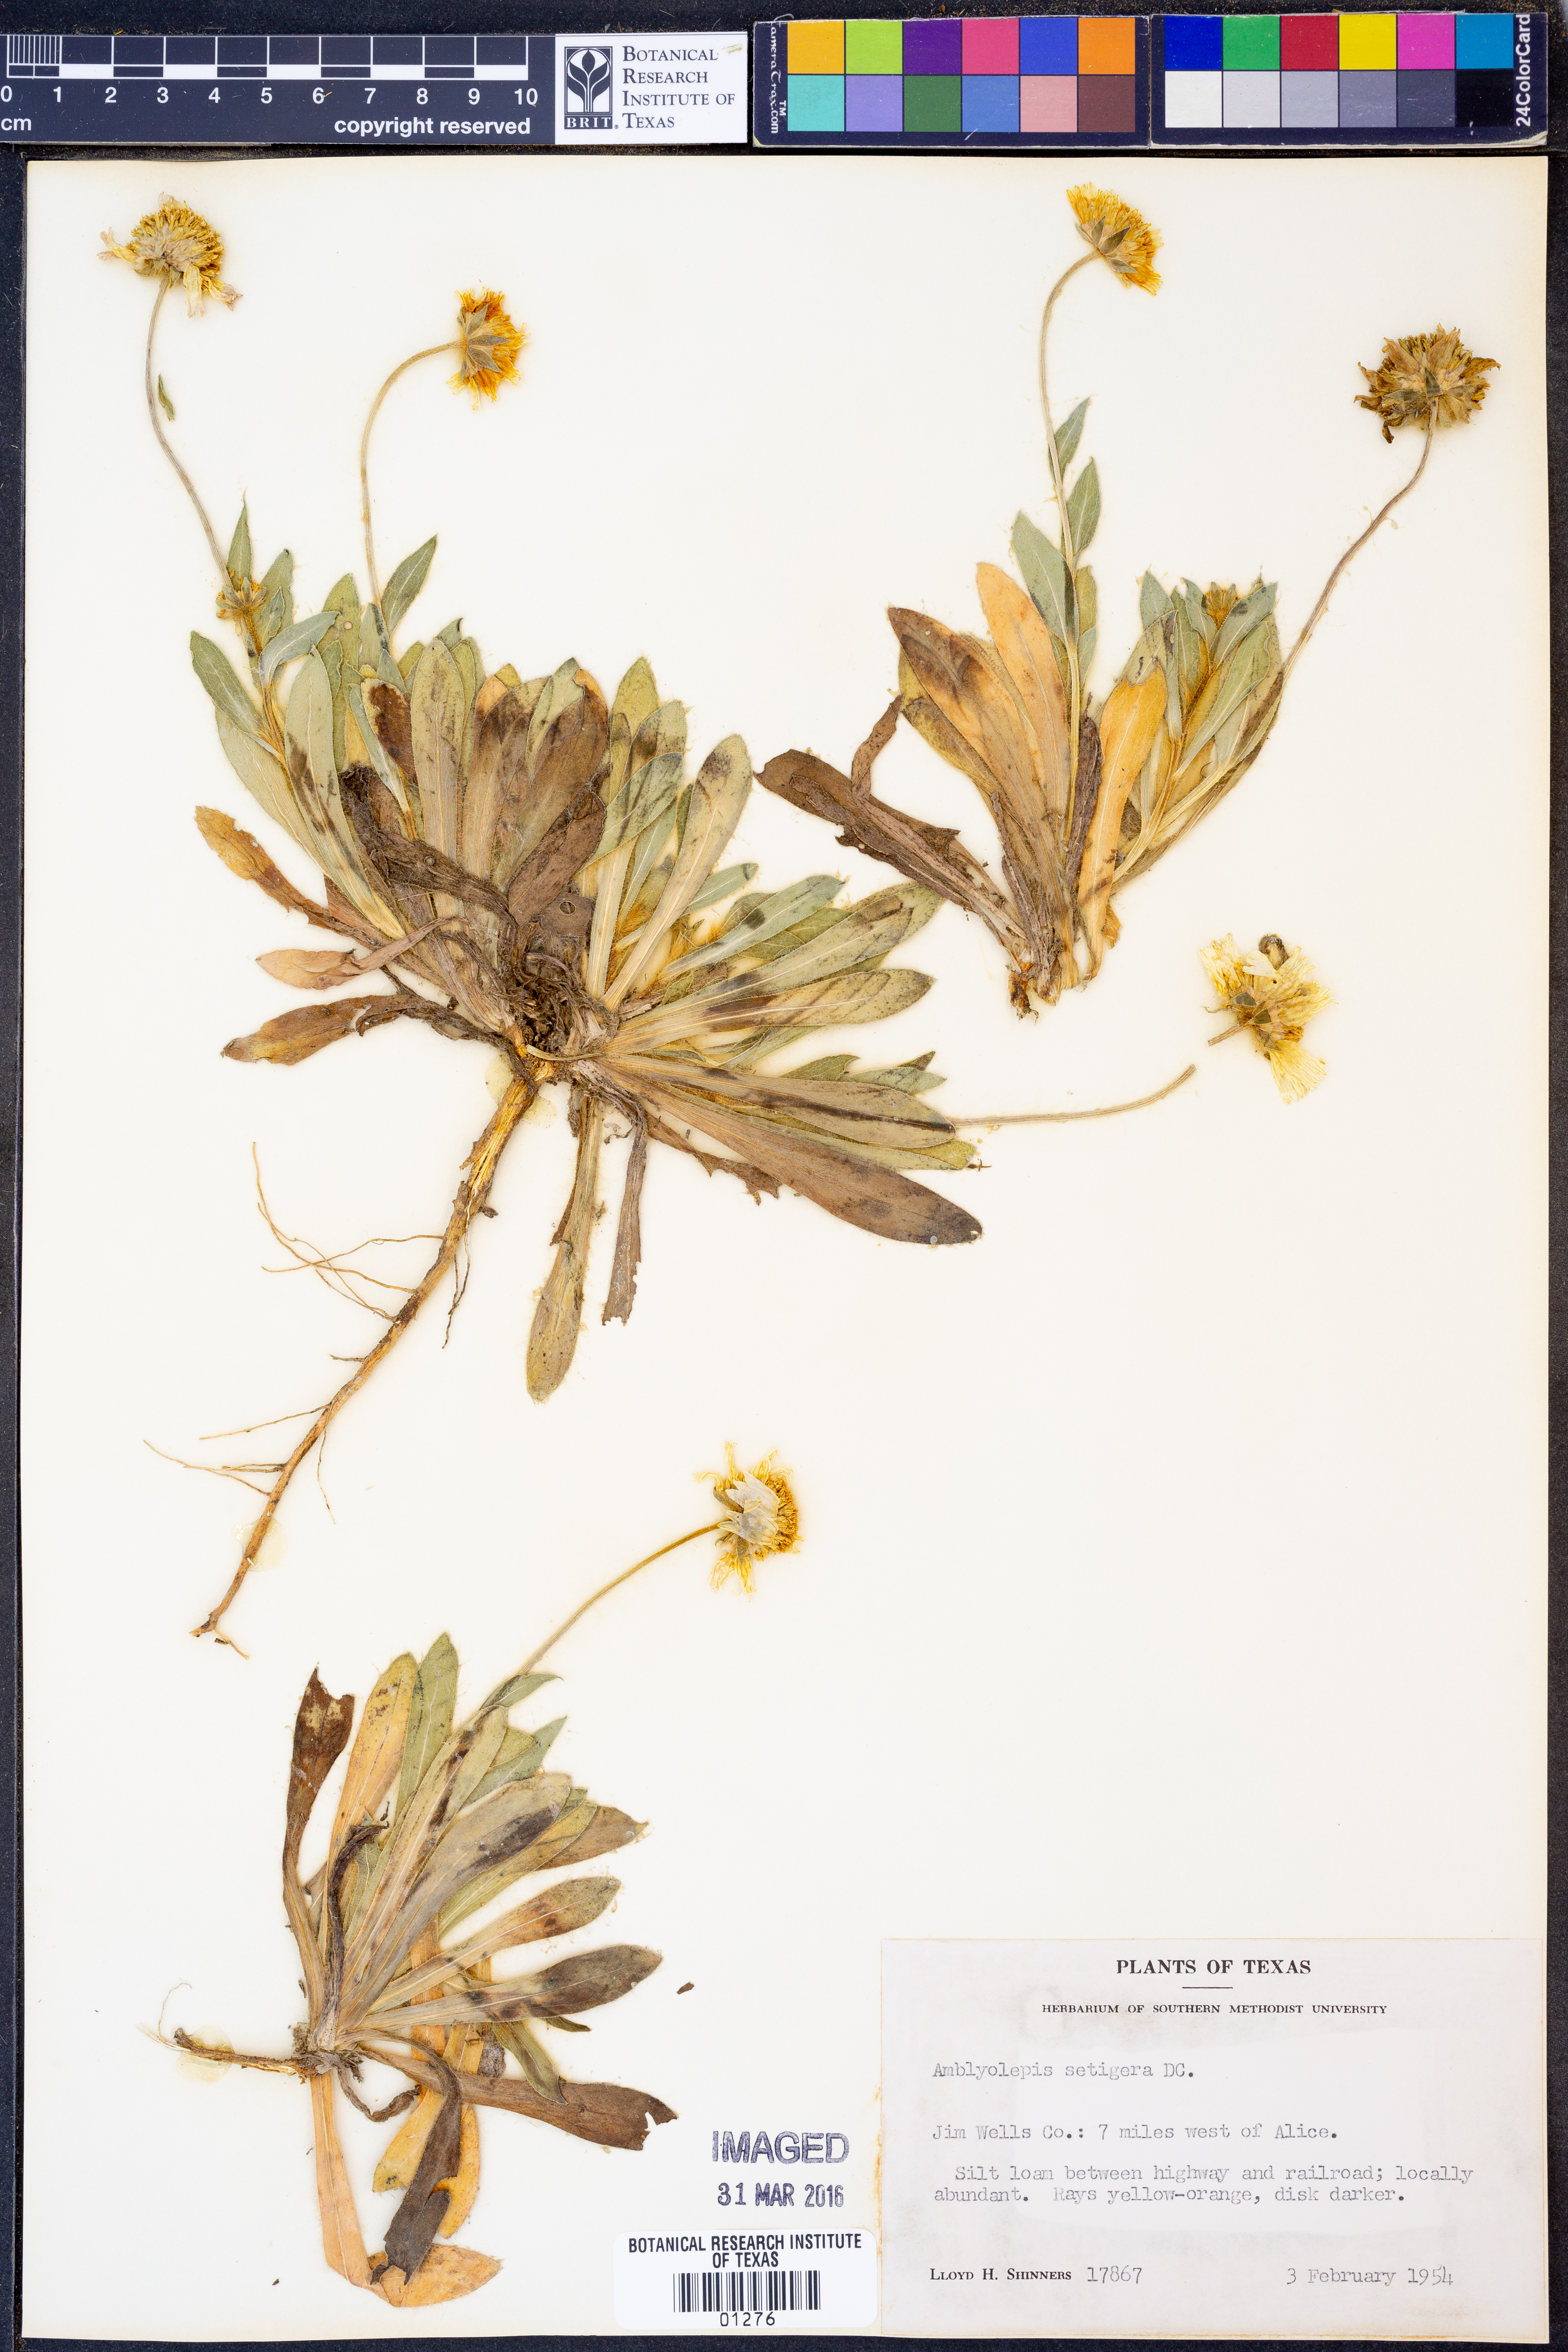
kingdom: Plantae
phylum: Tracheophyta
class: Magnoliopsida
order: Asterales
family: Asteraceae
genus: Amblyolepis
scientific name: Amblyolepis setigera
